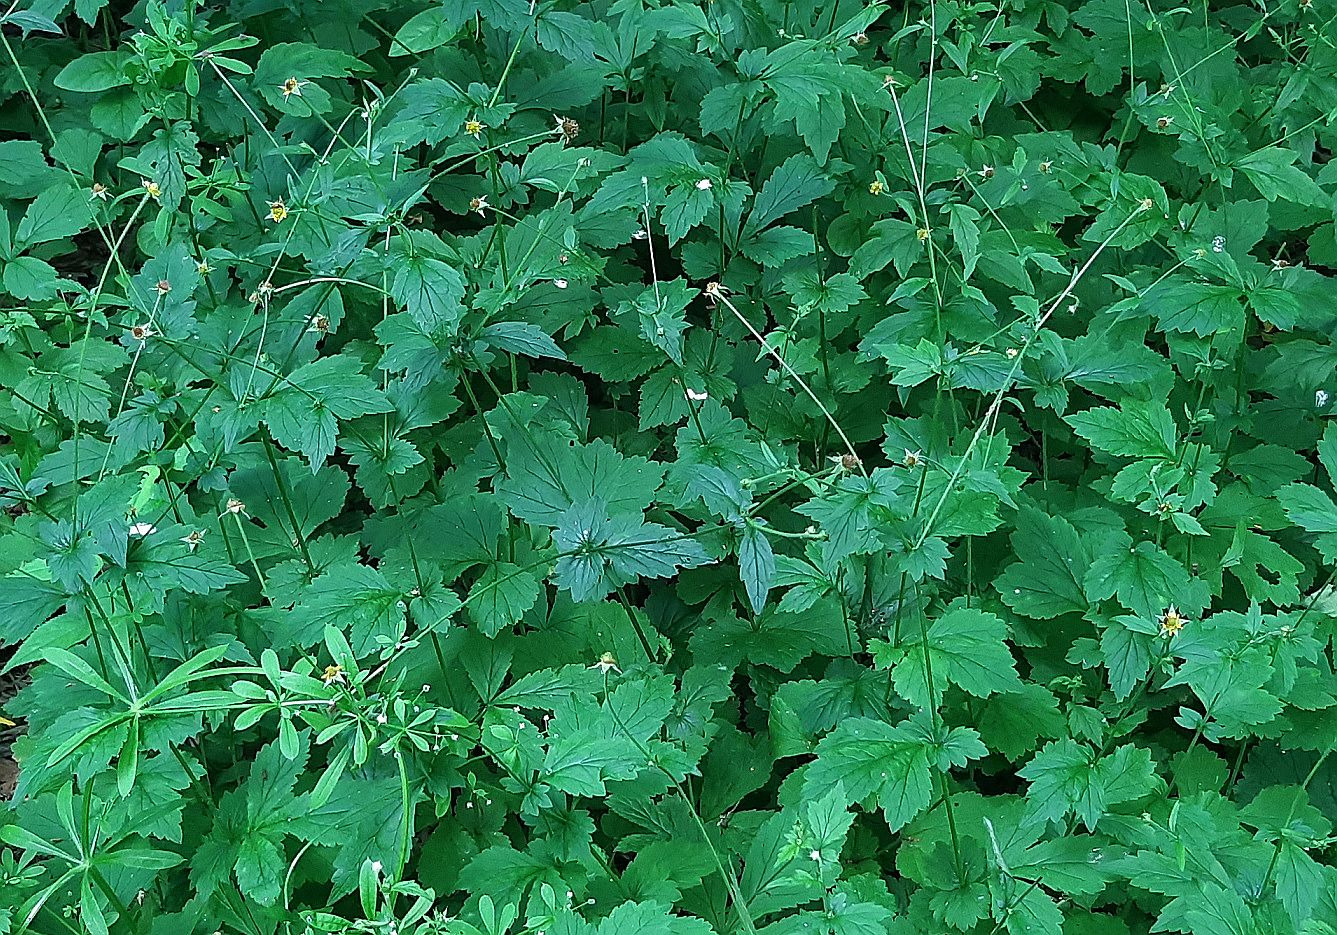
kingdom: Plantae
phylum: Tracheophyta
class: Magnoliopsida
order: Rosales
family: Rosaceae
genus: Geum
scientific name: Geum urbanum
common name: Feber-nellikerod
